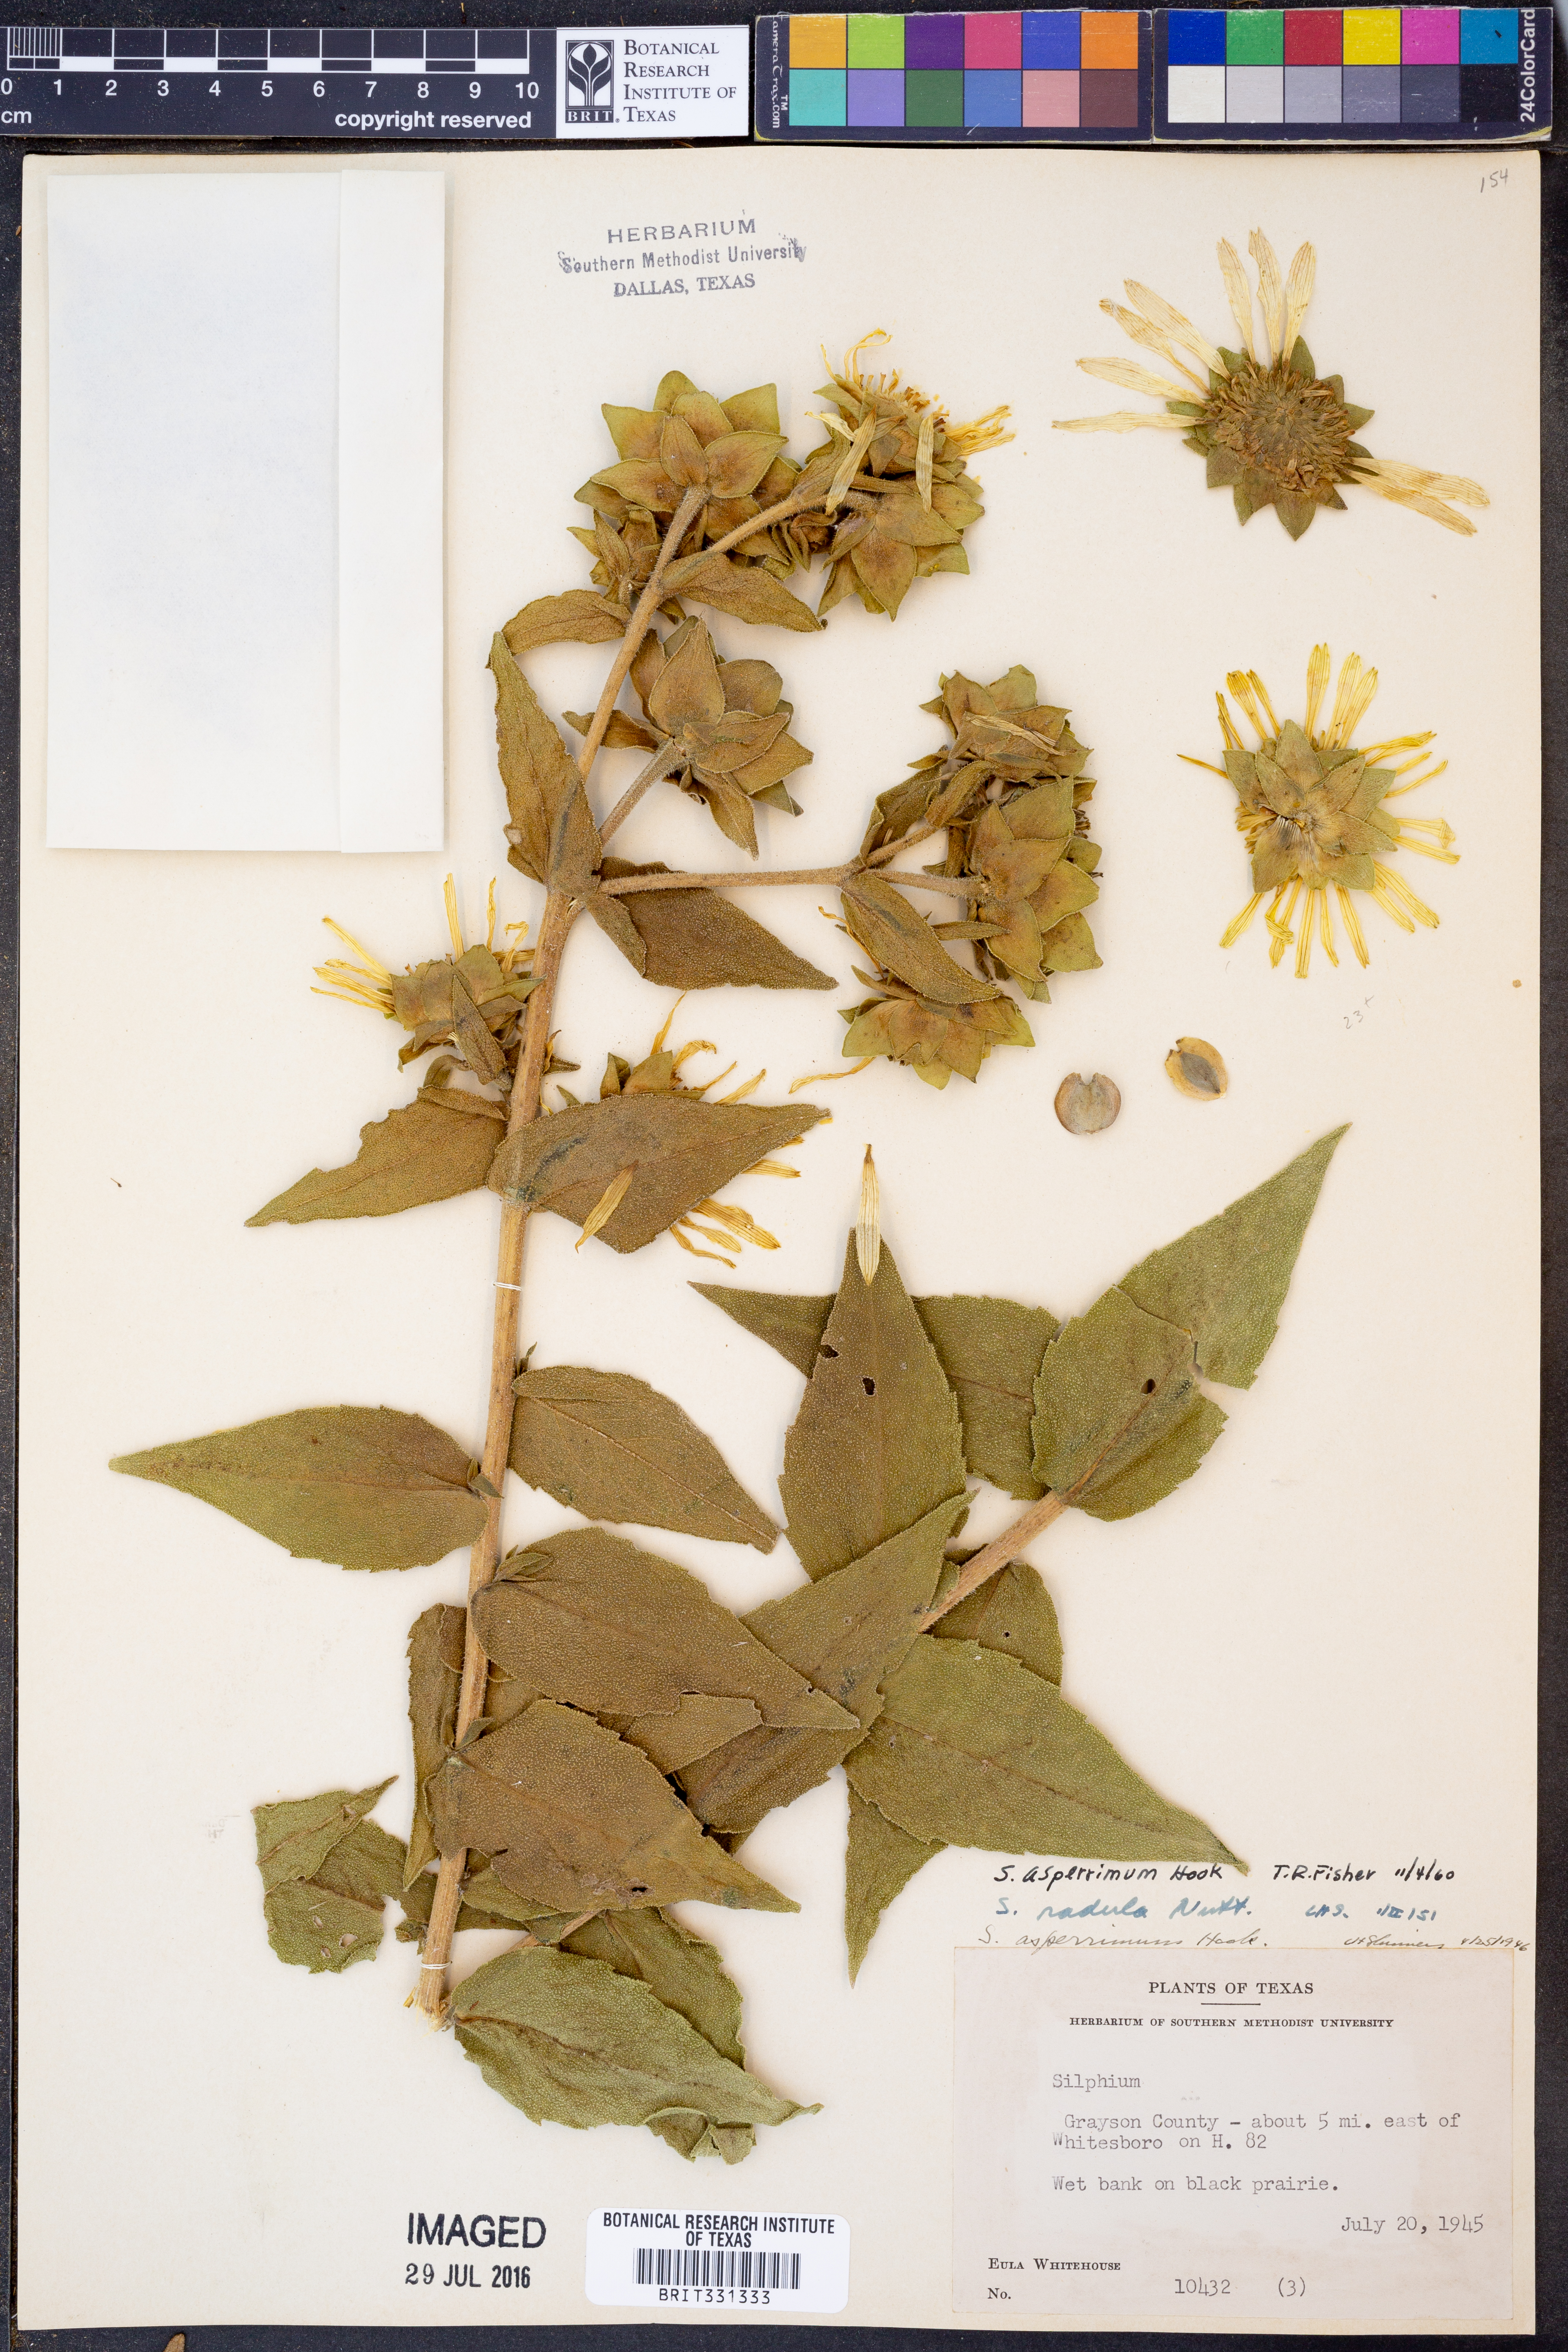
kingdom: Plantae
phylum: Tracheophyta
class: Magnoliopsida
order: Asterales
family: Asteraceae
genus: Silphium
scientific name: Silphium asperrimum
